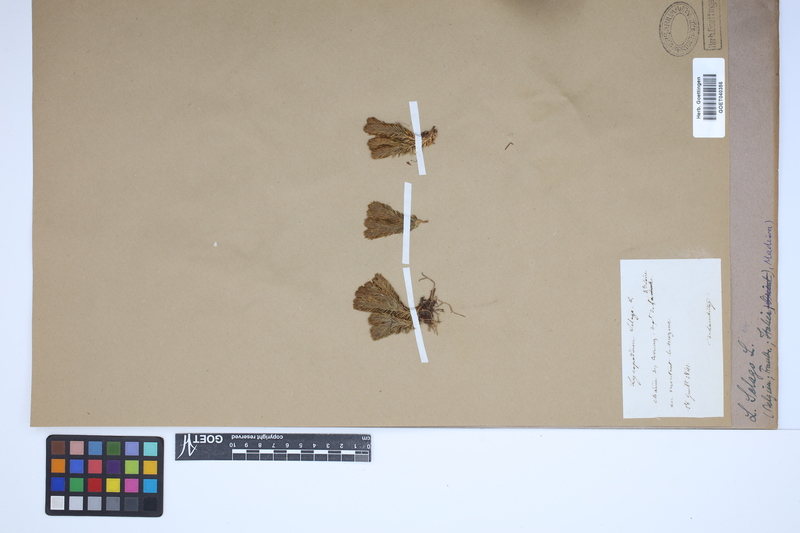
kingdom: Plantae
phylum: Tracheophyta
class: Lycopodiopsida
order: Lycopodiales
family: Lycopodiaceae
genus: Huperzia
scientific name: Huperzia selago
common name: Northern firmoss
